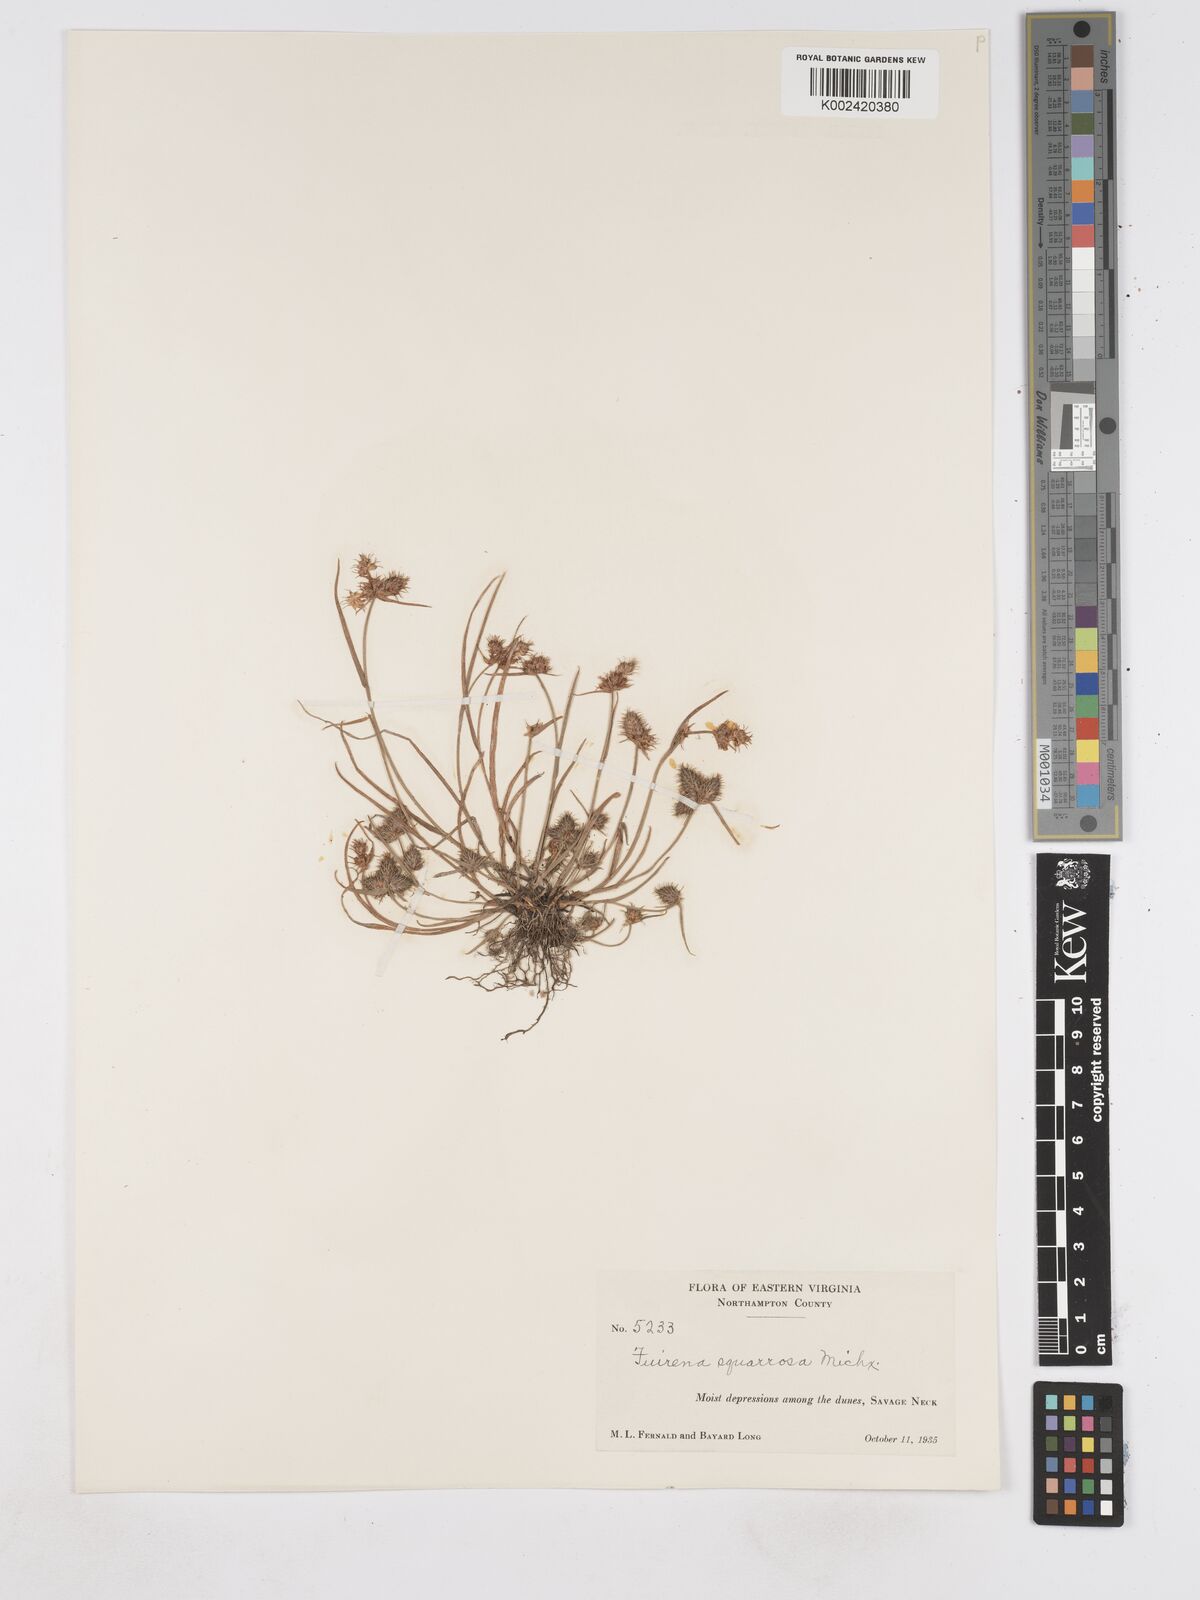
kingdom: Plantae
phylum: Tracheophyta
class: Liliopsida
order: Poales
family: Cyperaceae
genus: Fuirena
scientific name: Fuirena squarrosa
